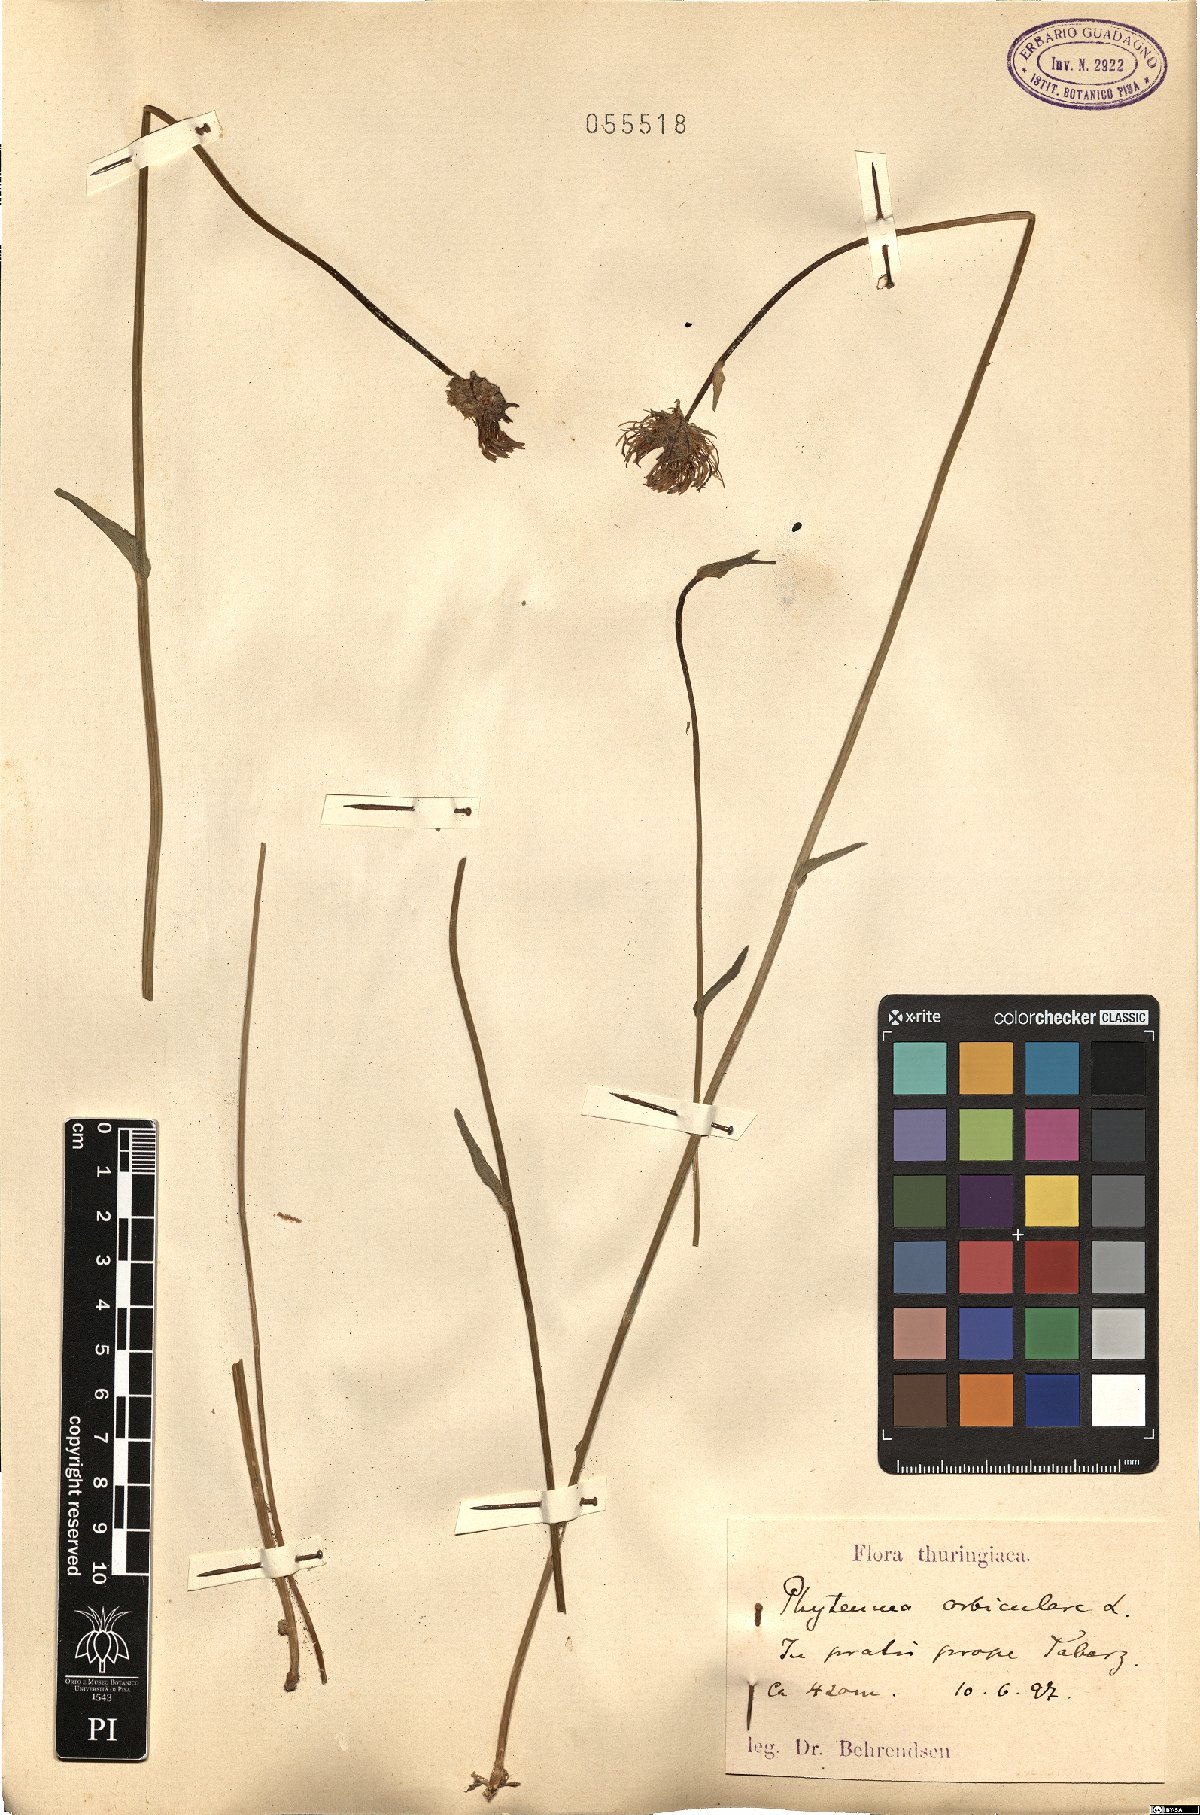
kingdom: Plantae
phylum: Tracheophyta
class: Magnoliopsida
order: Asterales
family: Campanulaceae
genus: Phyteuma
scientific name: Phyteuma orbiculare
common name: Round-headed rampion
